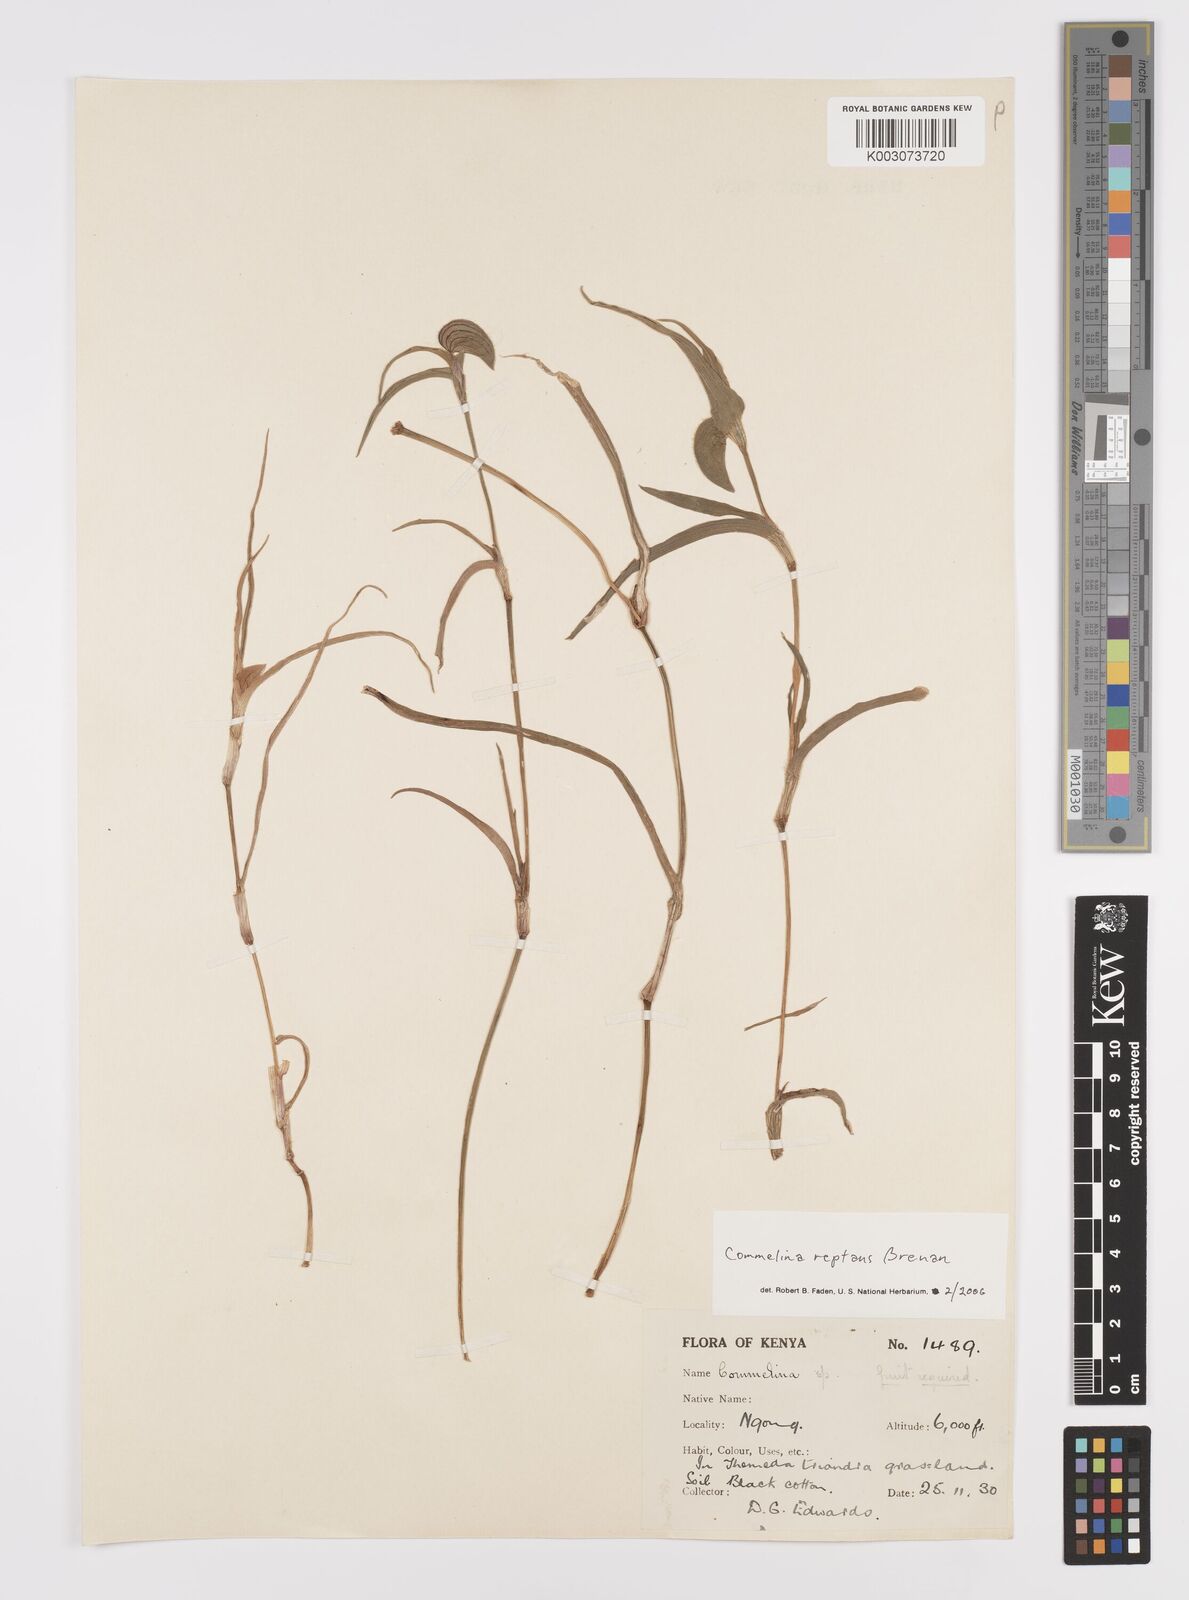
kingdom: Plantae
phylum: Tracheophyta
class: Liliopsida
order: Commelinales
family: Commelinaceae
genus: Commelina
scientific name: Commelina reptans
